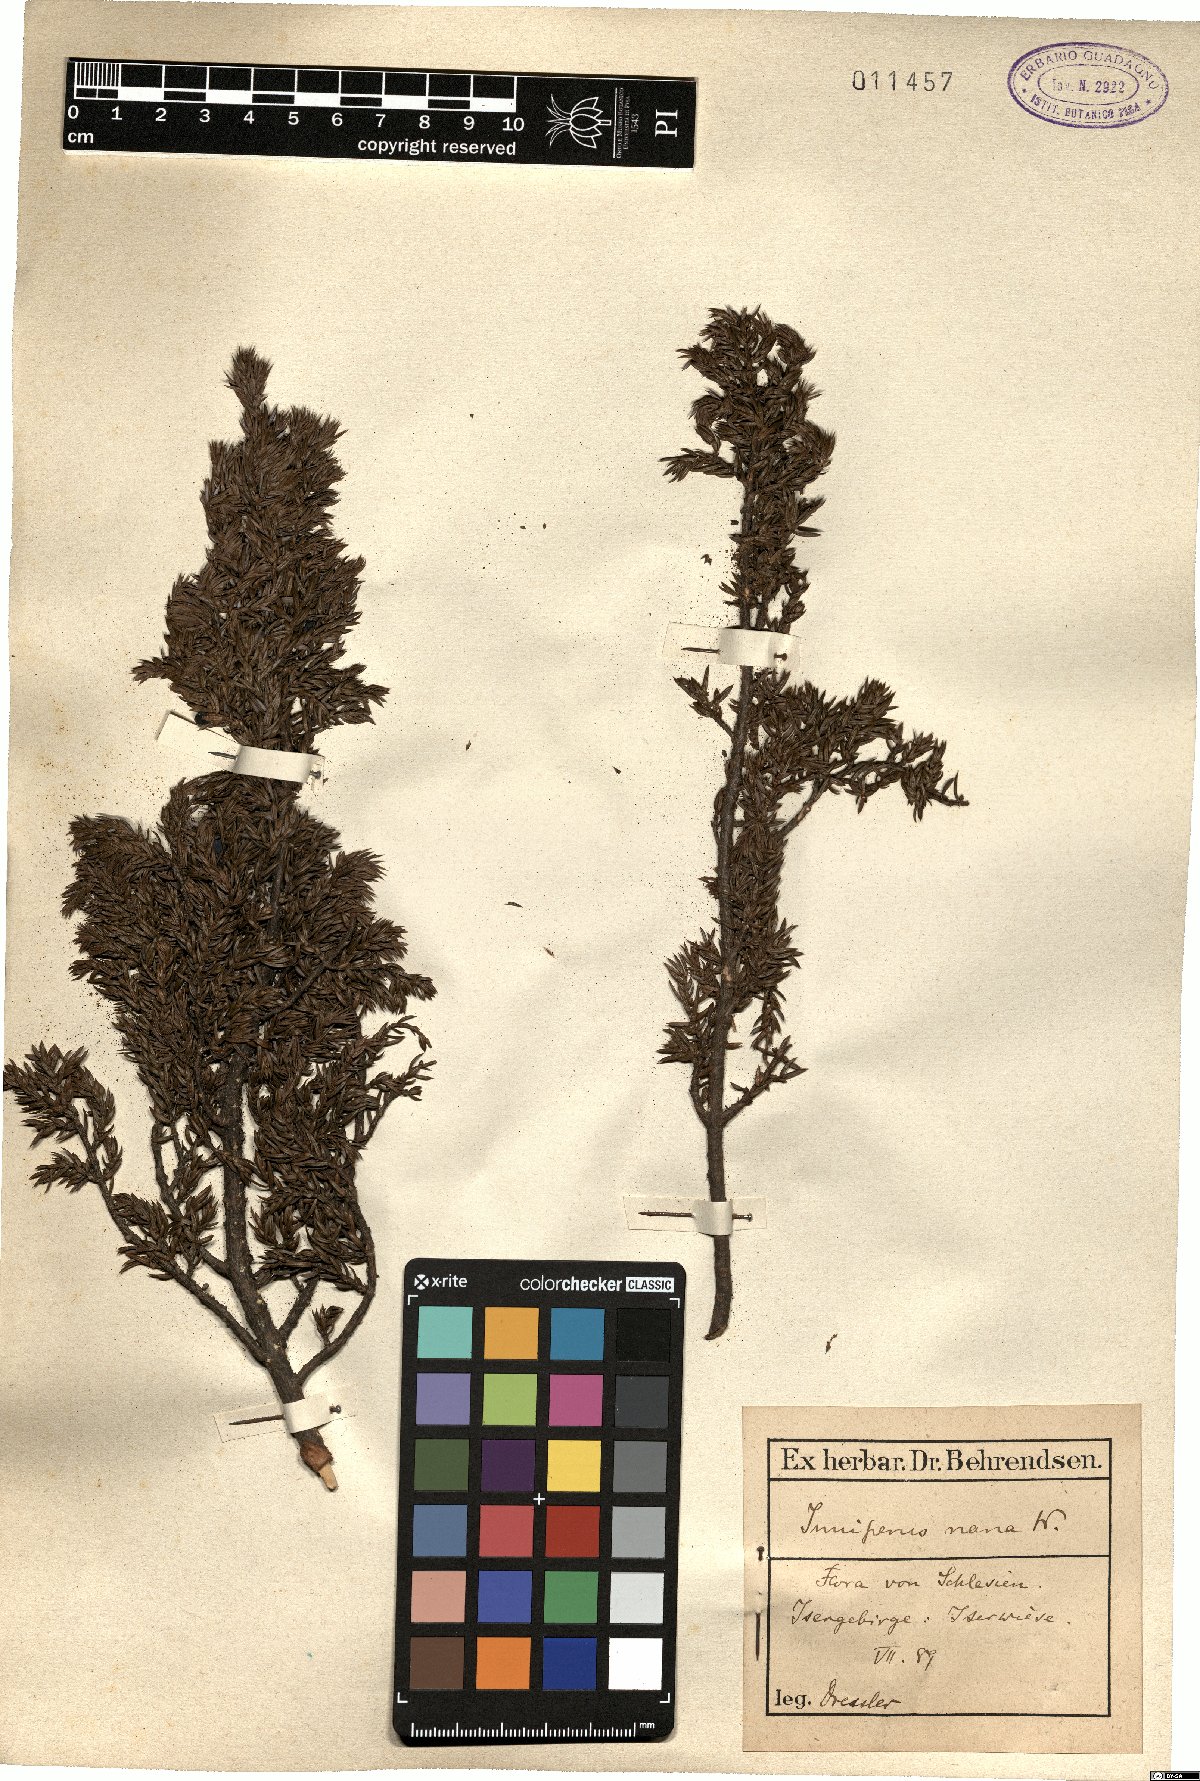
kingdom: Plantae
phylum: Tracheophyta
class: Pinopsida
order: Pinales
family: Cupressaceae
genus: Juniperus
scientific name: Juniperus communis
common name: Common juniper
